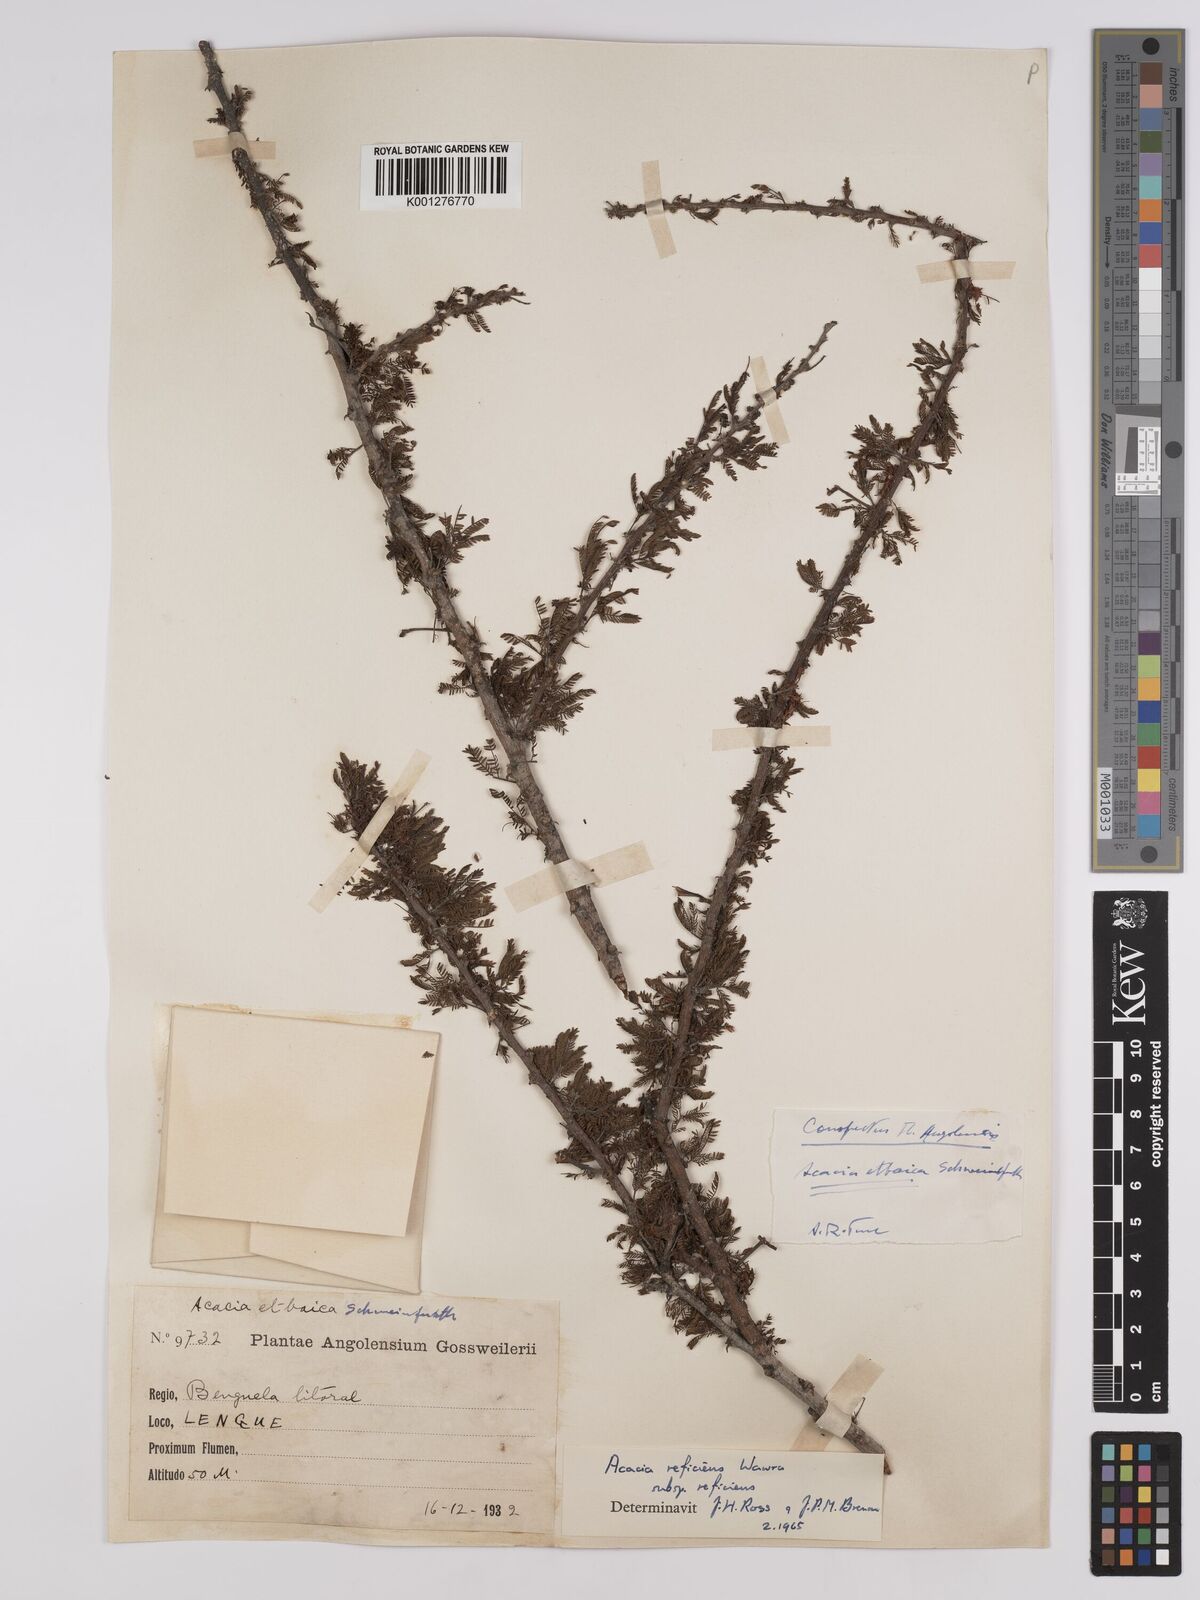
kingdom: Plantae
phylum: Tracheophyta
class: Magnoliopsida
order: Fabales
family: Fabaceae
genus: Vachellia
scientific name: Vachellia reficiens
